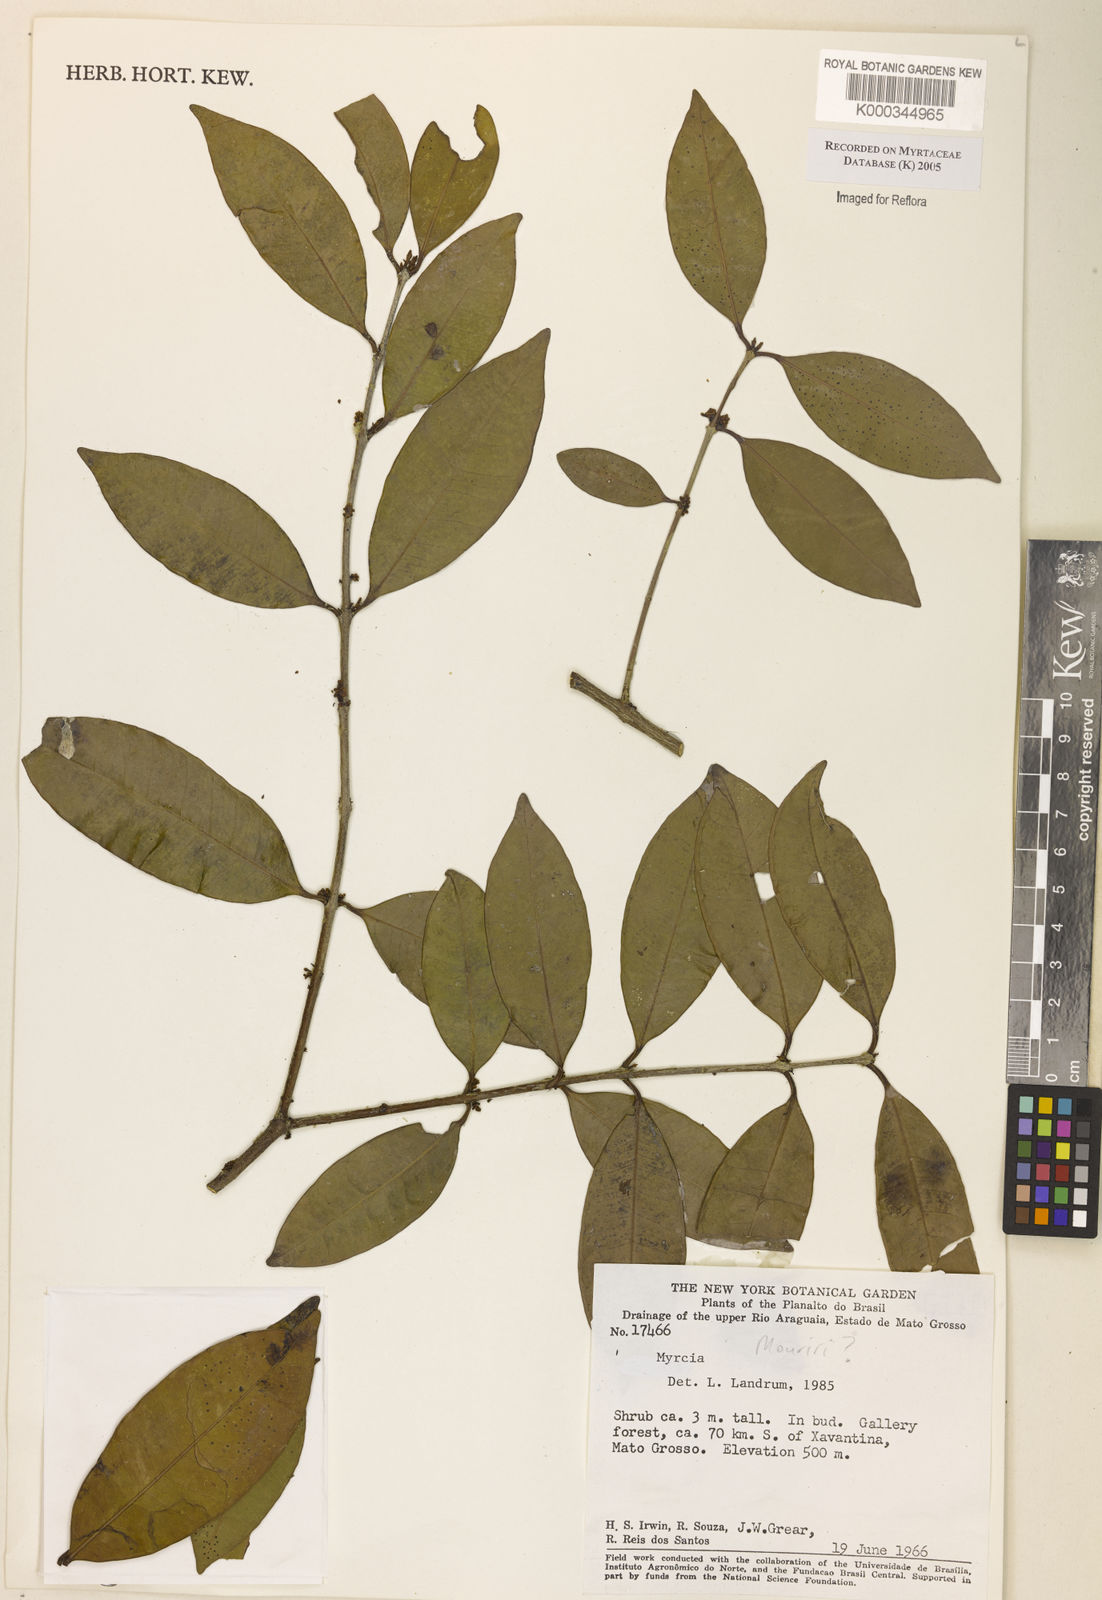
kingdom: Plantae
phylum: Tracheophyta
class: Magnoliopsida
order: Myrtales
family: Myrtaceae
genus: Myrcia
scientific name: Myrcia
